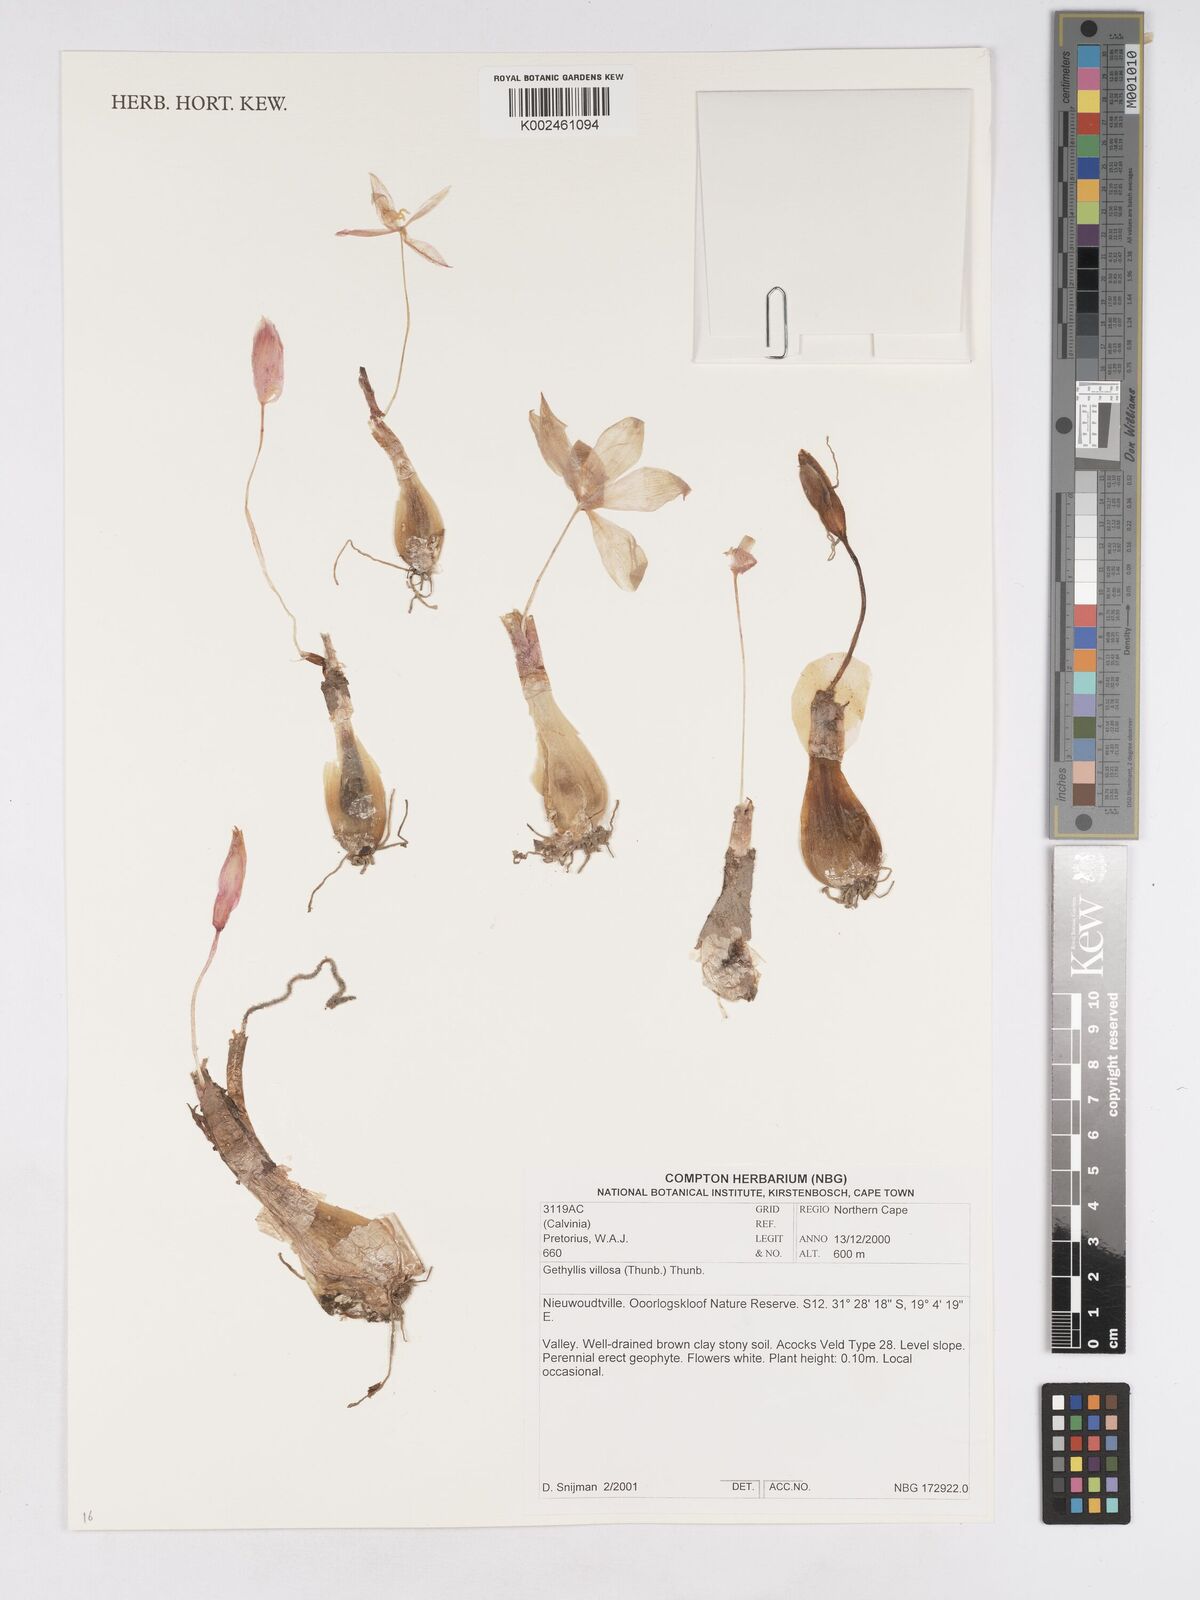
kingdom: Plantae
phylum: Tracheophyta
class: Liliopsida
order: Asparagales
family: Amaryllidaceae
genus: Gethyllis
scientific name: Gethyllis villosa
